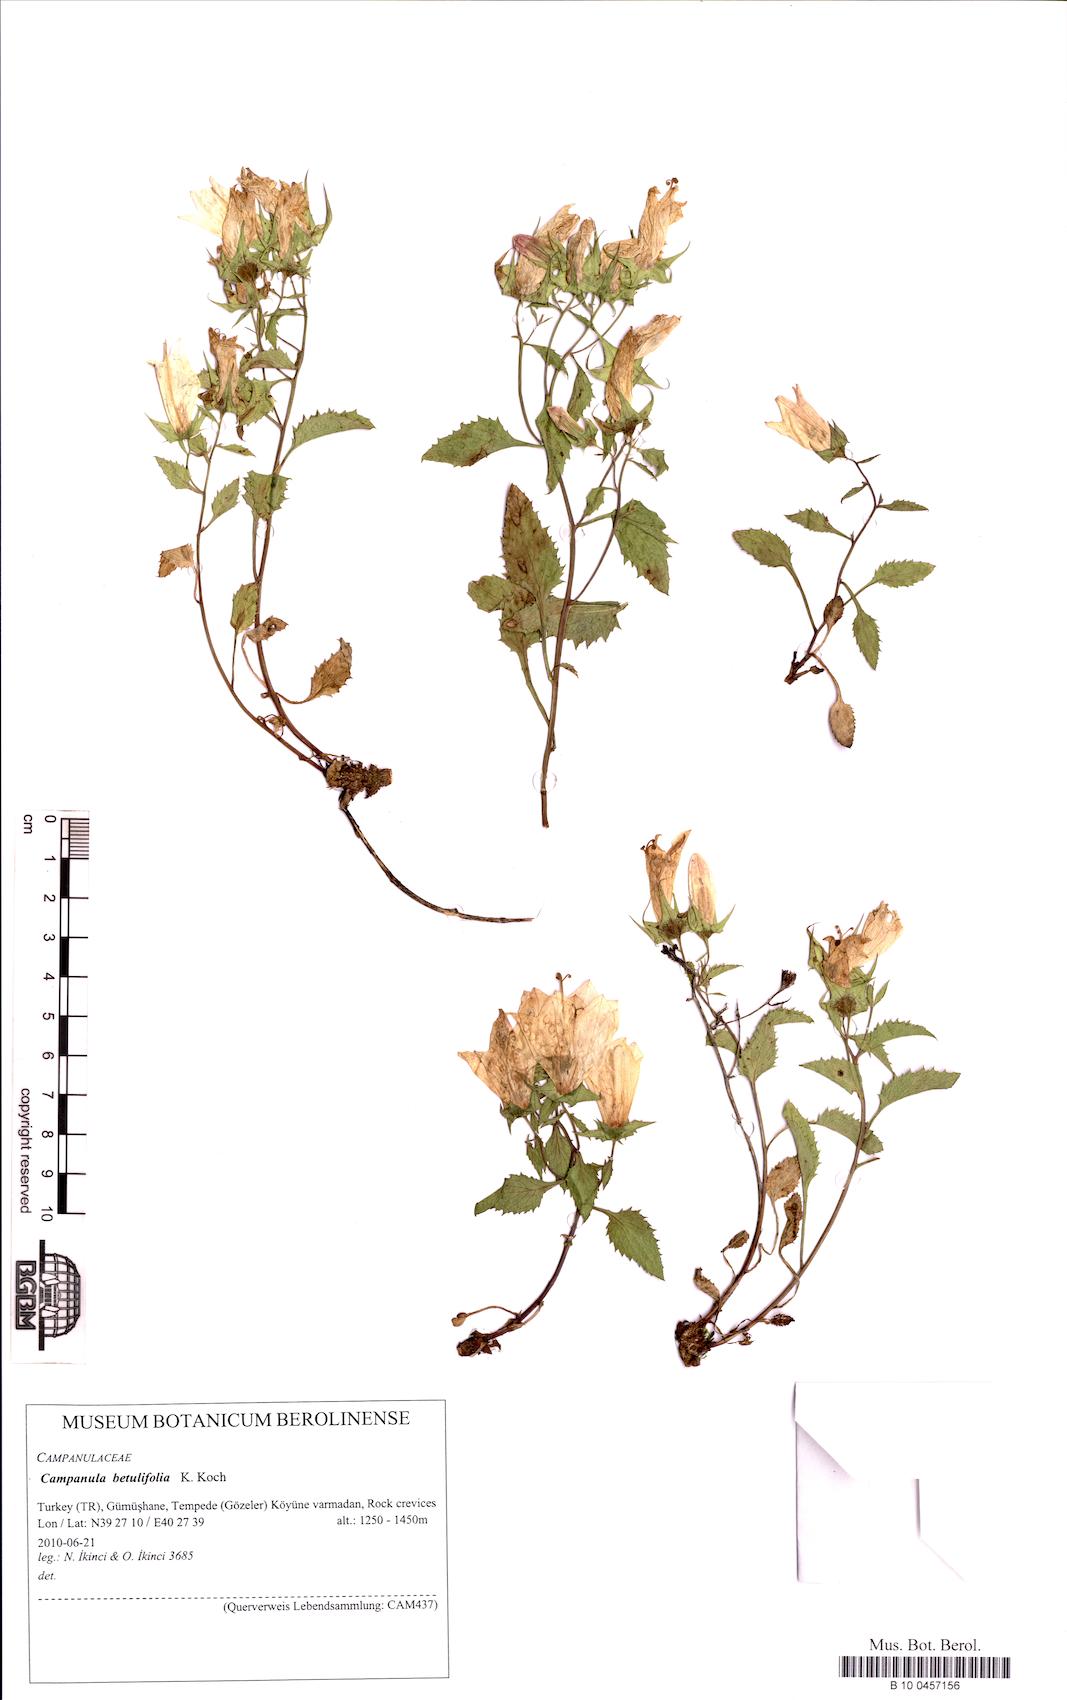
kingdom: Plantae
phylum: Tracheophyta
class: Magnoliopsida
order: Asterales
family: Campanulaceae
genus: Campanula
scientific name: Campanula betulifolia
